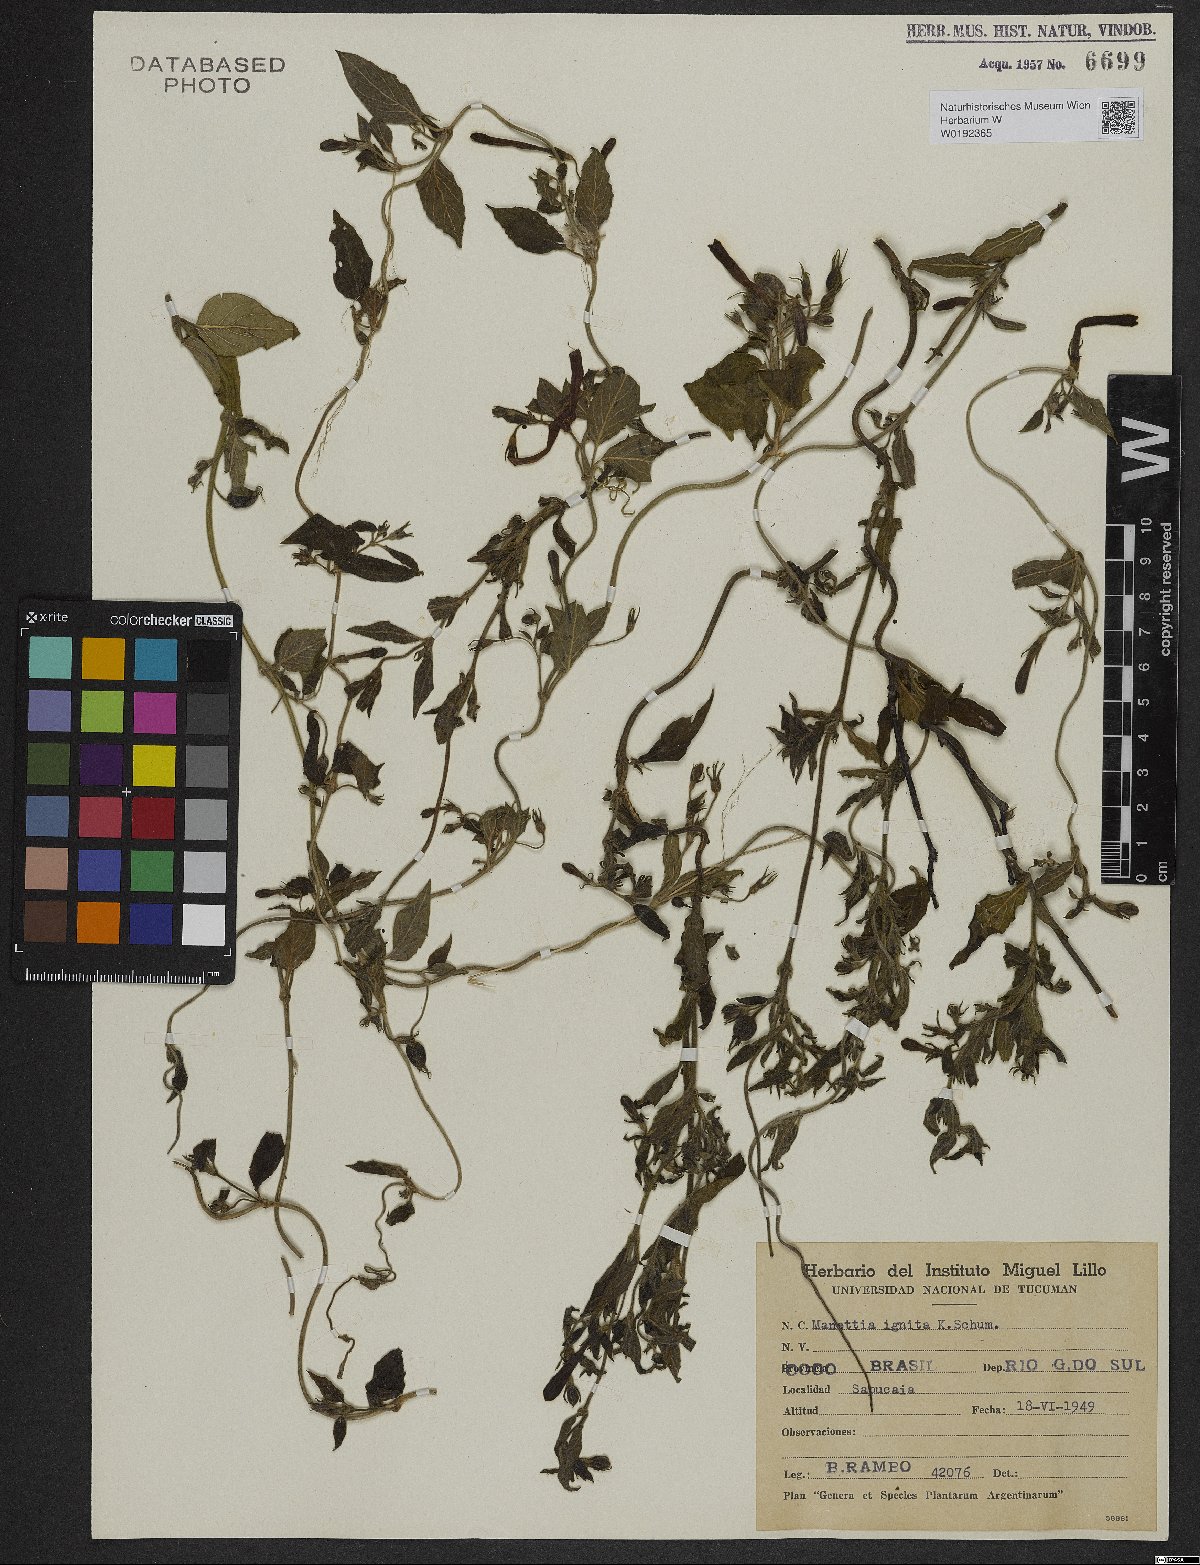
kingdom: Plantae
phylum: Tracheophyta
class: Magnoliopsida
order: Gentianales
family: Rubiaceae
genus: Manettia
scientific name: Manettia cordifolia
